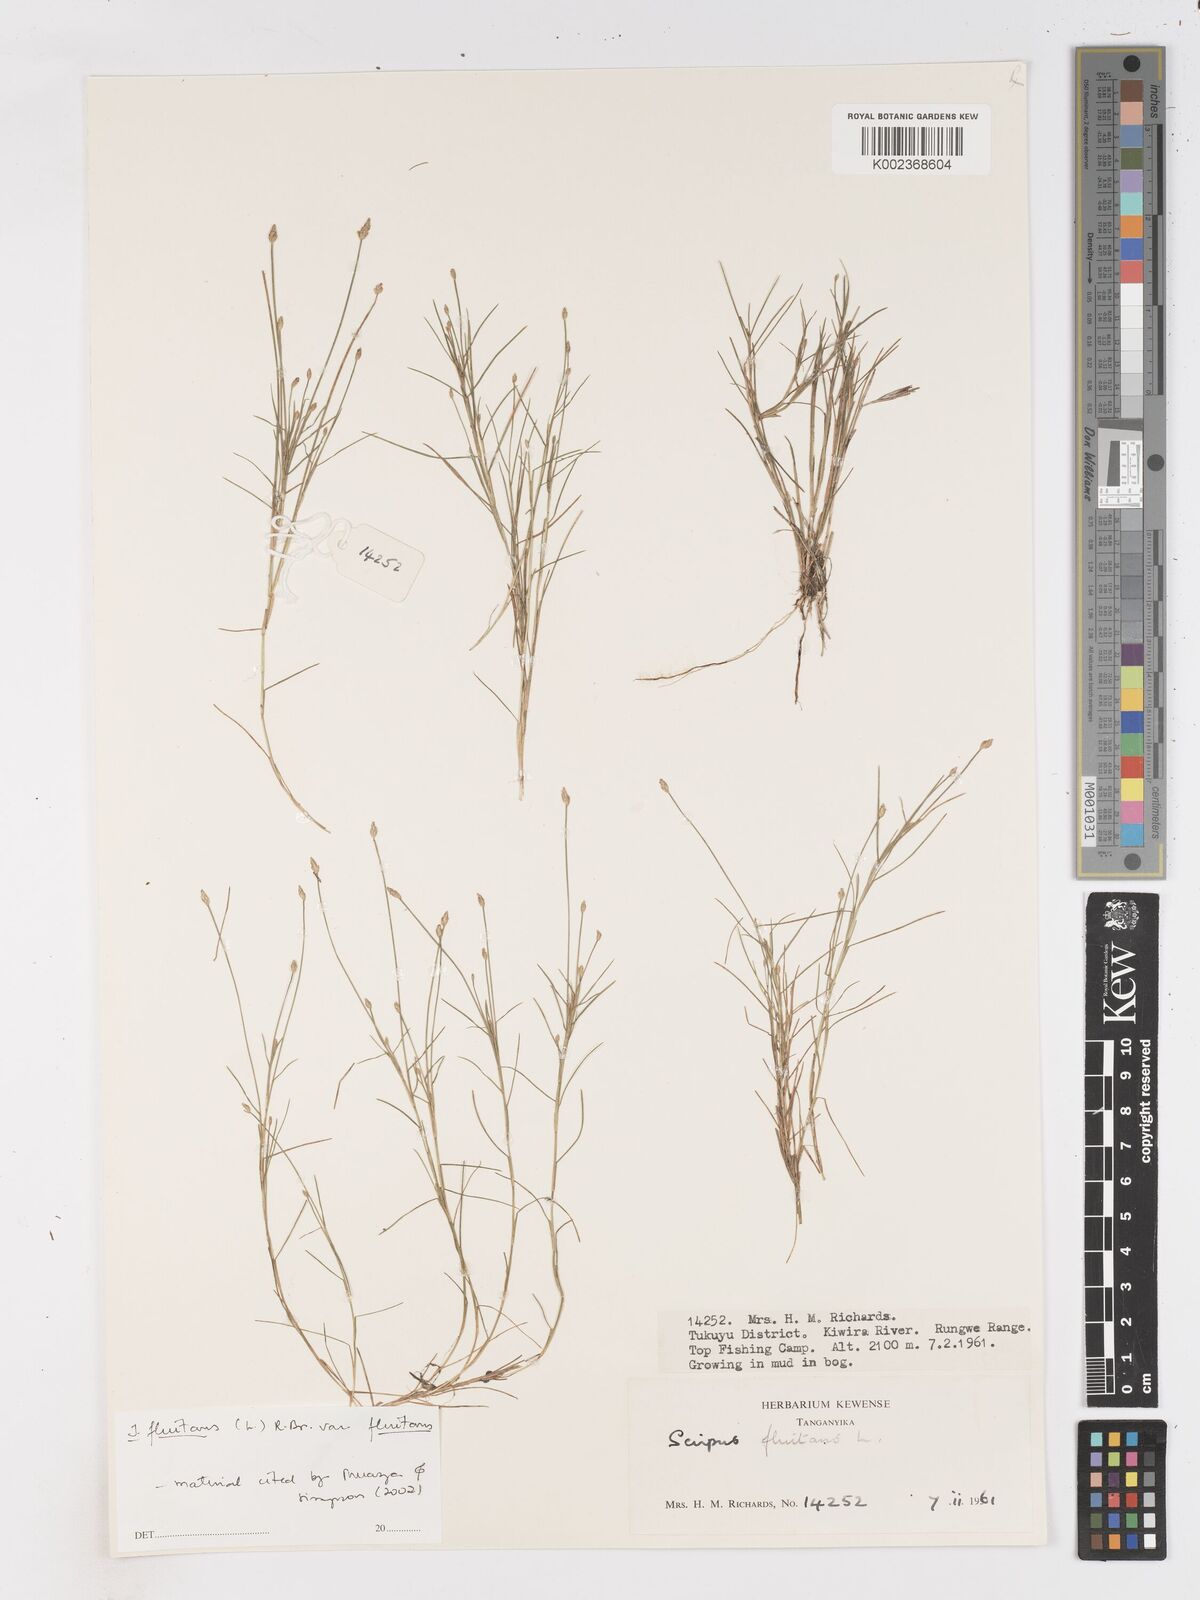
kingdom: Plantae
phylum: Tracheophyta
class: Liliopsida
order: Poales
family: Cyperaceae
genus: Isolepis
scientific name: Isolepis fluitans
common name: Floating club-rush
